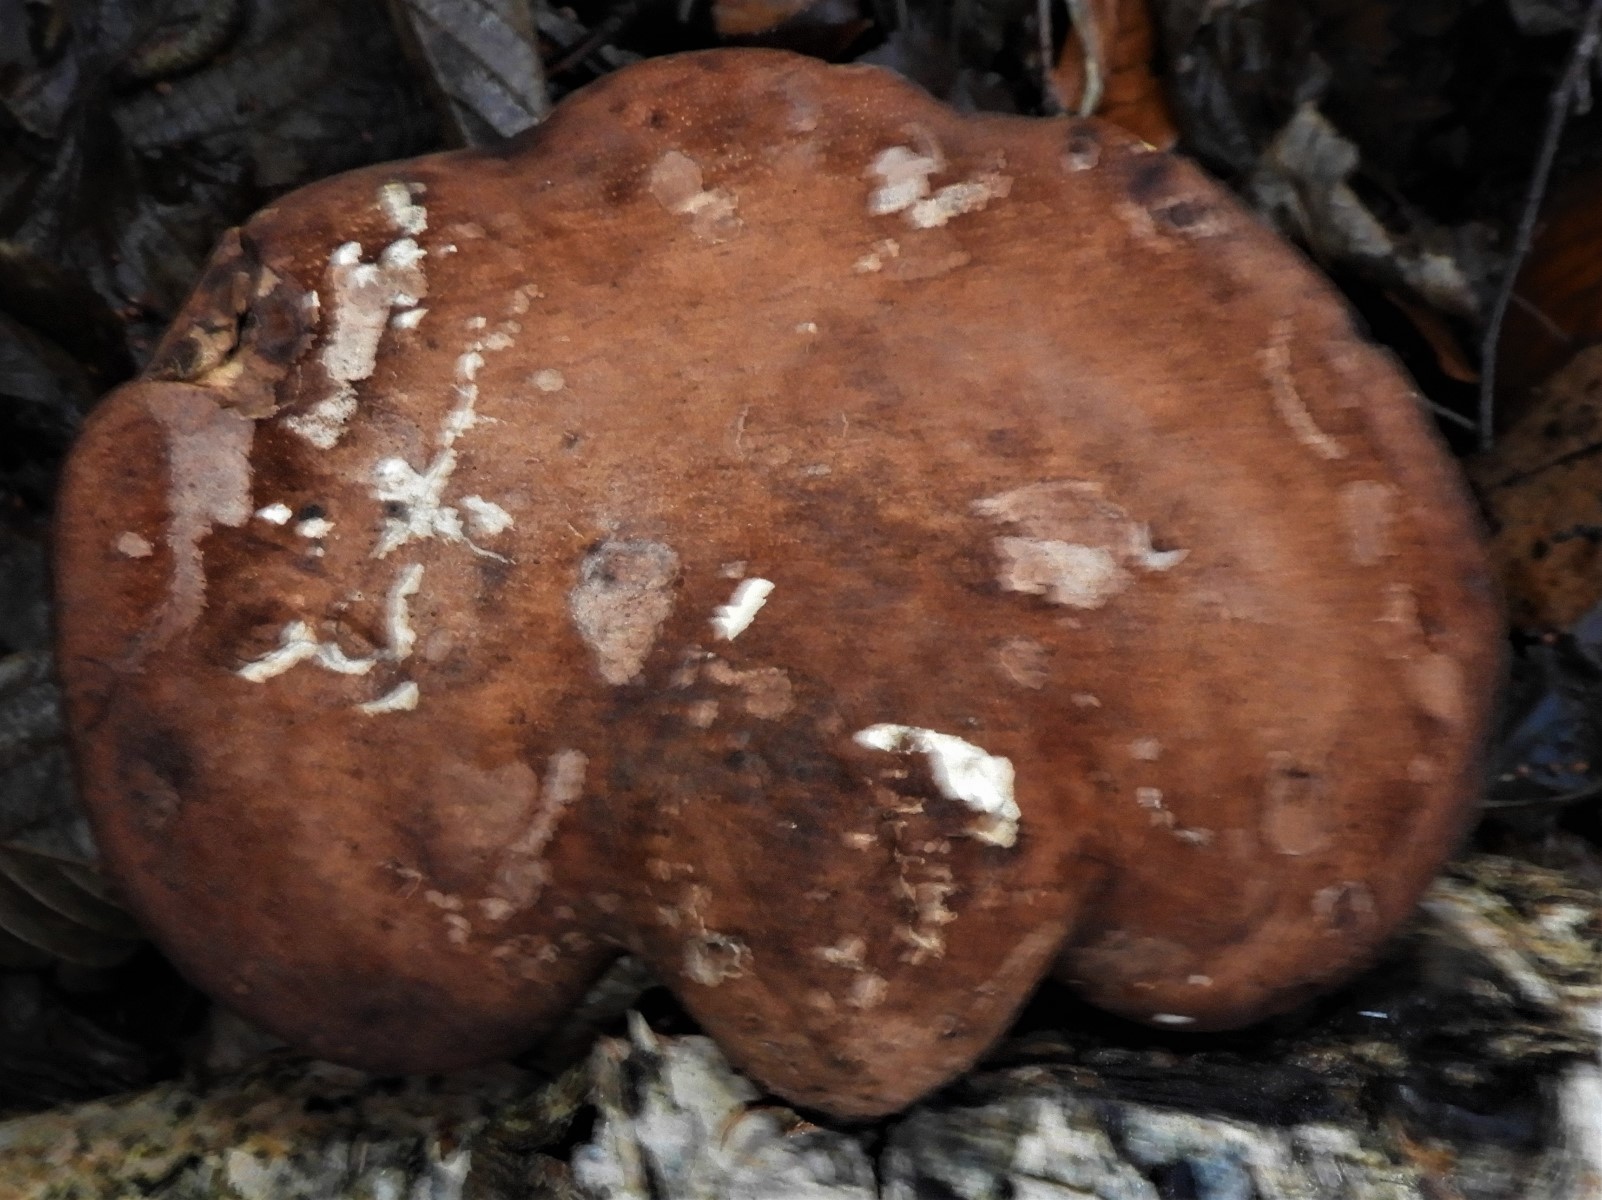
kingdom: Fungi
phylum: Basidiomycota
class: Agaricomycetes
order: Polyporales
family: Fomitopsidaceae
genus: Fomitopsis
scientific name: Fomitopsis betulina
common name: birkeporesvamp
